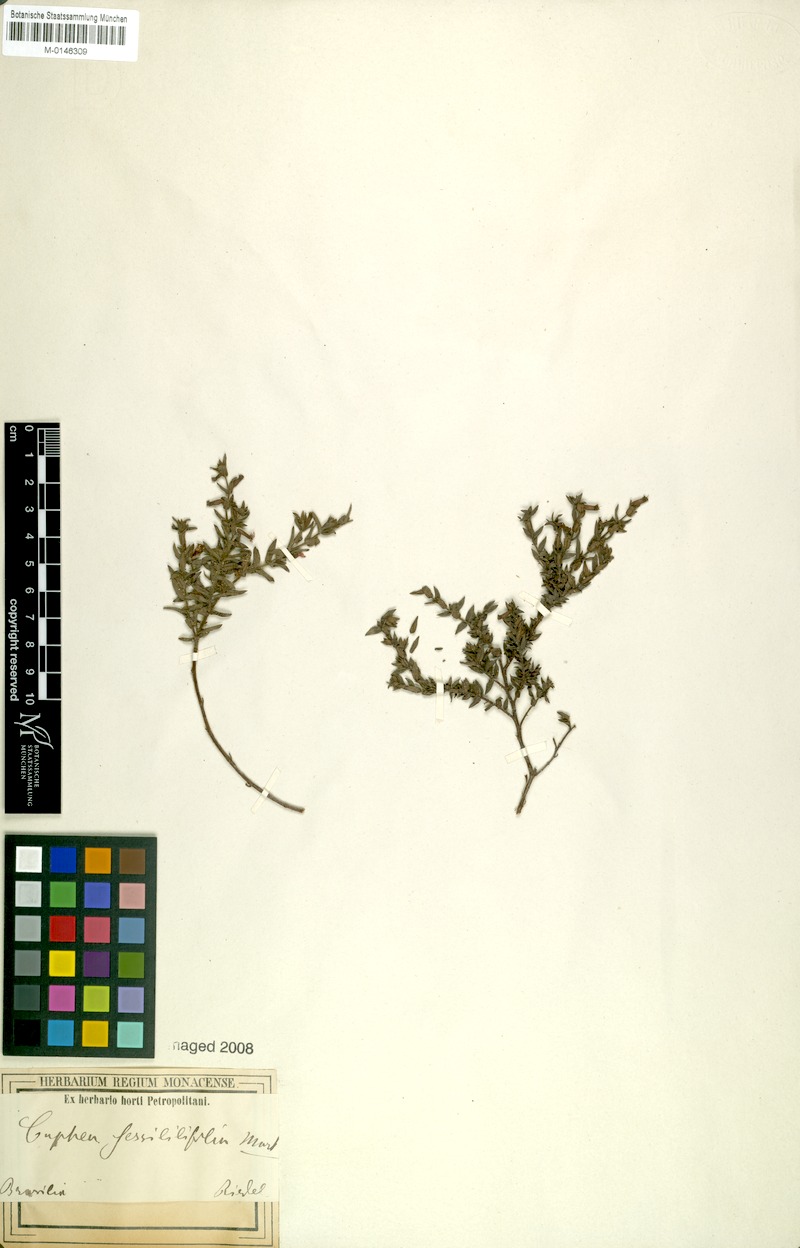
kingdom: Plantae
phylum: Tracheophyta
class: Magnoliopsida
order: Myrtales
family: Lythraceae
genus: Cuphea
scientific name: Cuphea sessilifolia
